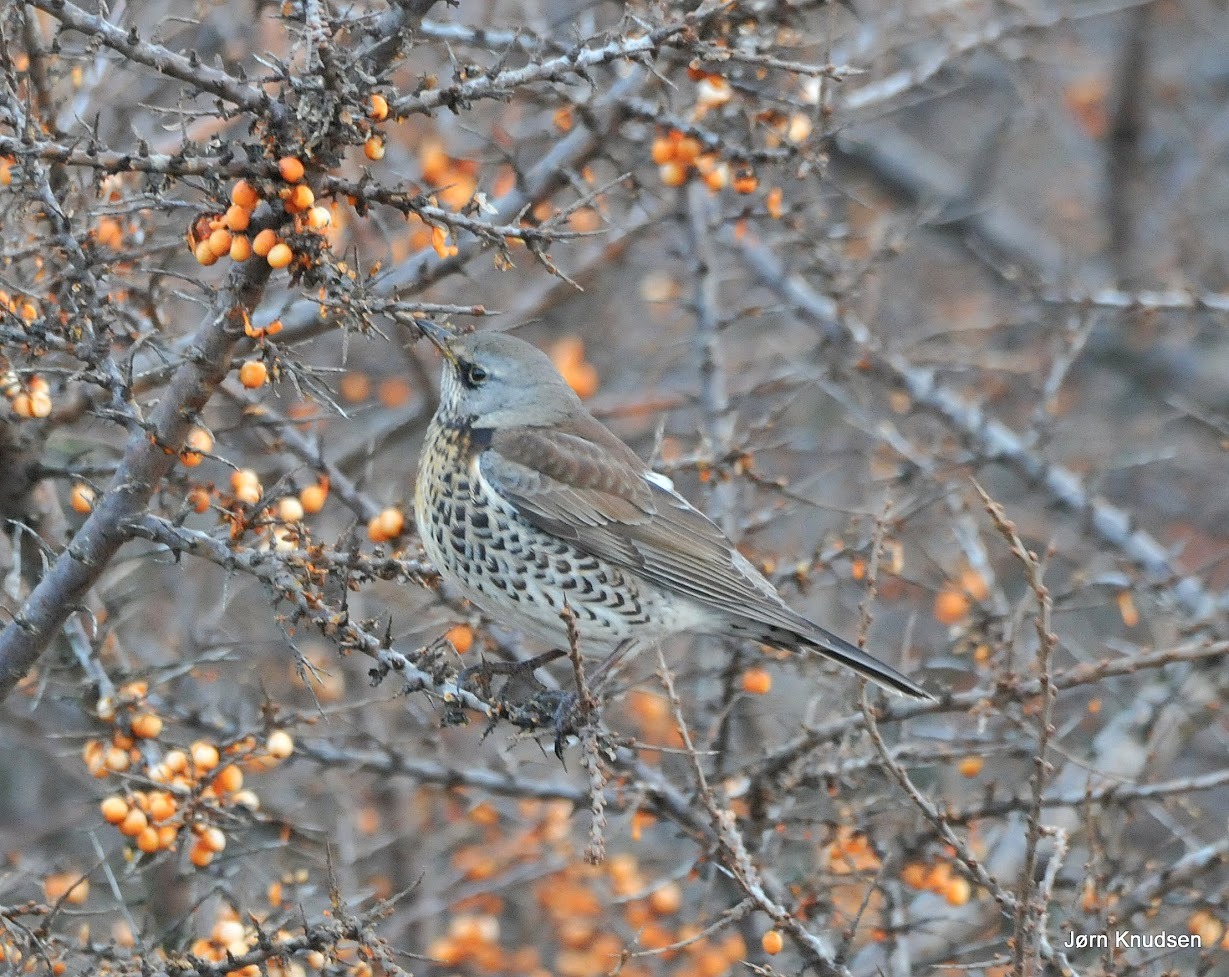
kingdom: Animalia
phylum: Chordata
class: Aves
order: Passeriformes
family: Turdidae
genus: Turdus
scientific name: Turdus pilaris
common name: Sjagger
